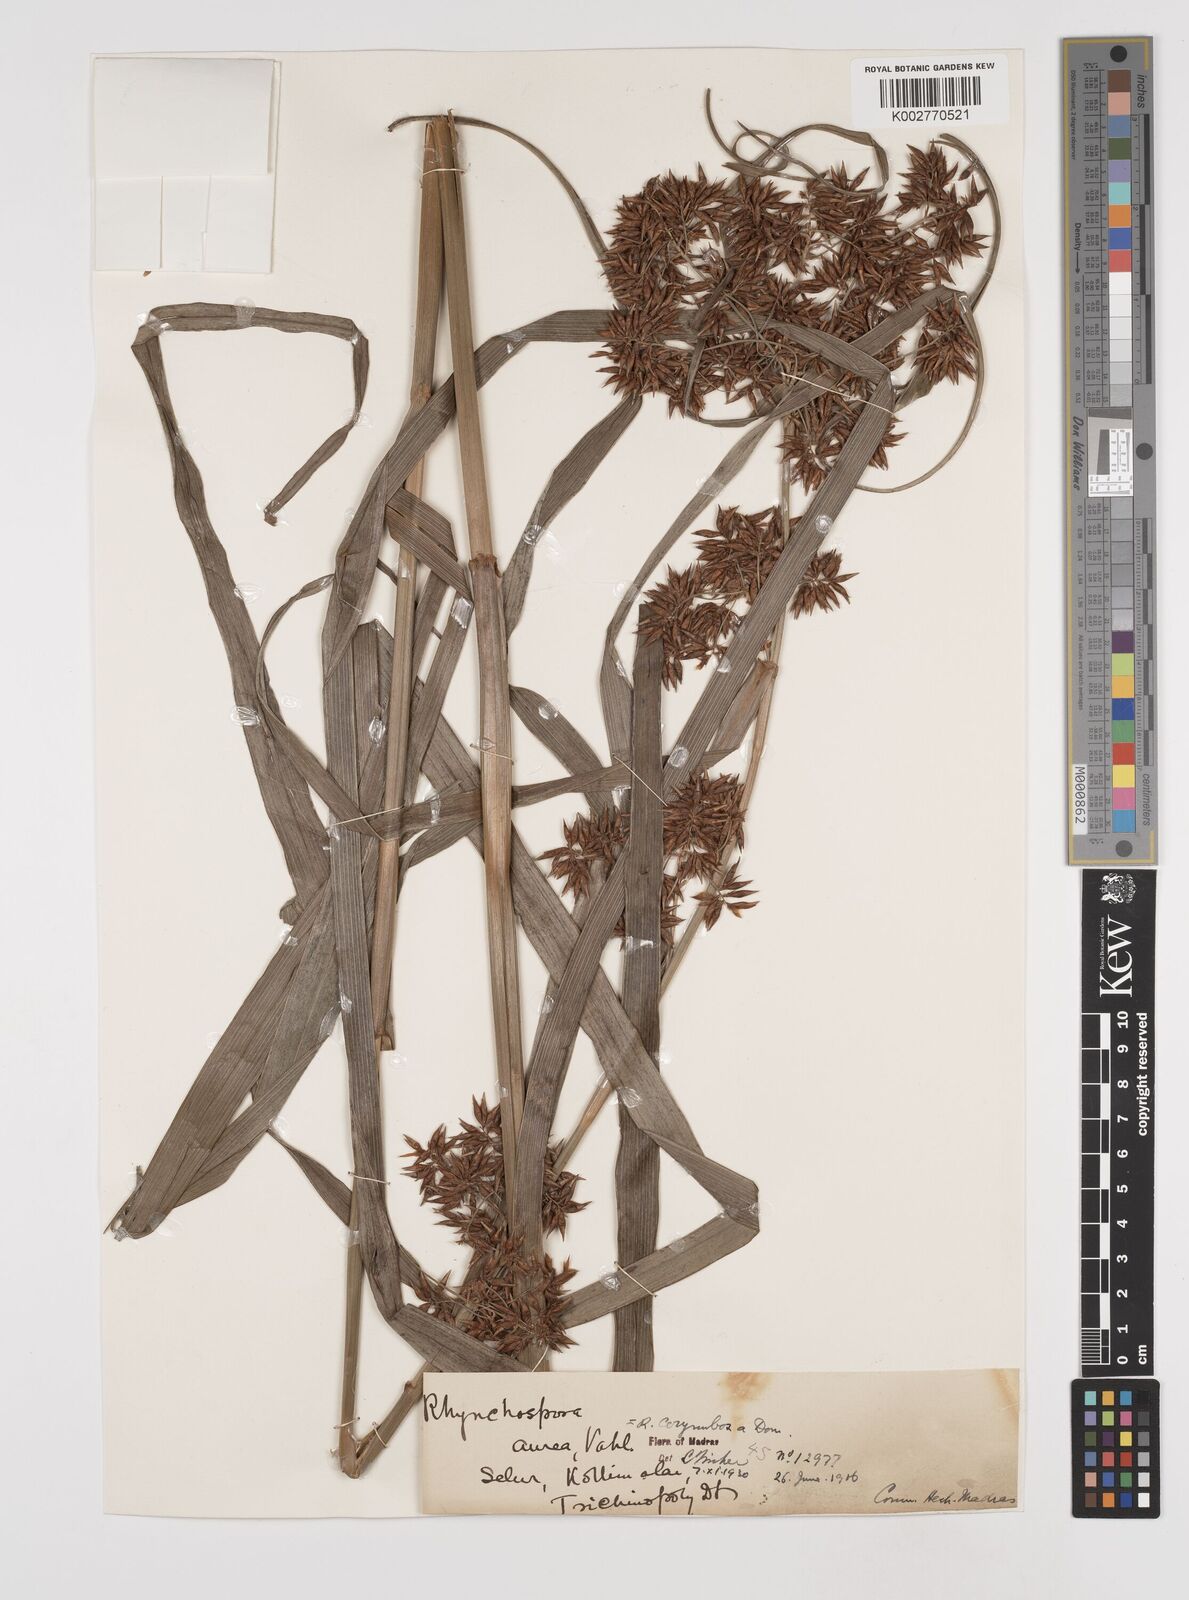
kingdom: Plantae
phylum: Tracheophyta
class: Liliopsida
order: Poales
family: Cyperaceae
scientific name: Cyperaceae
